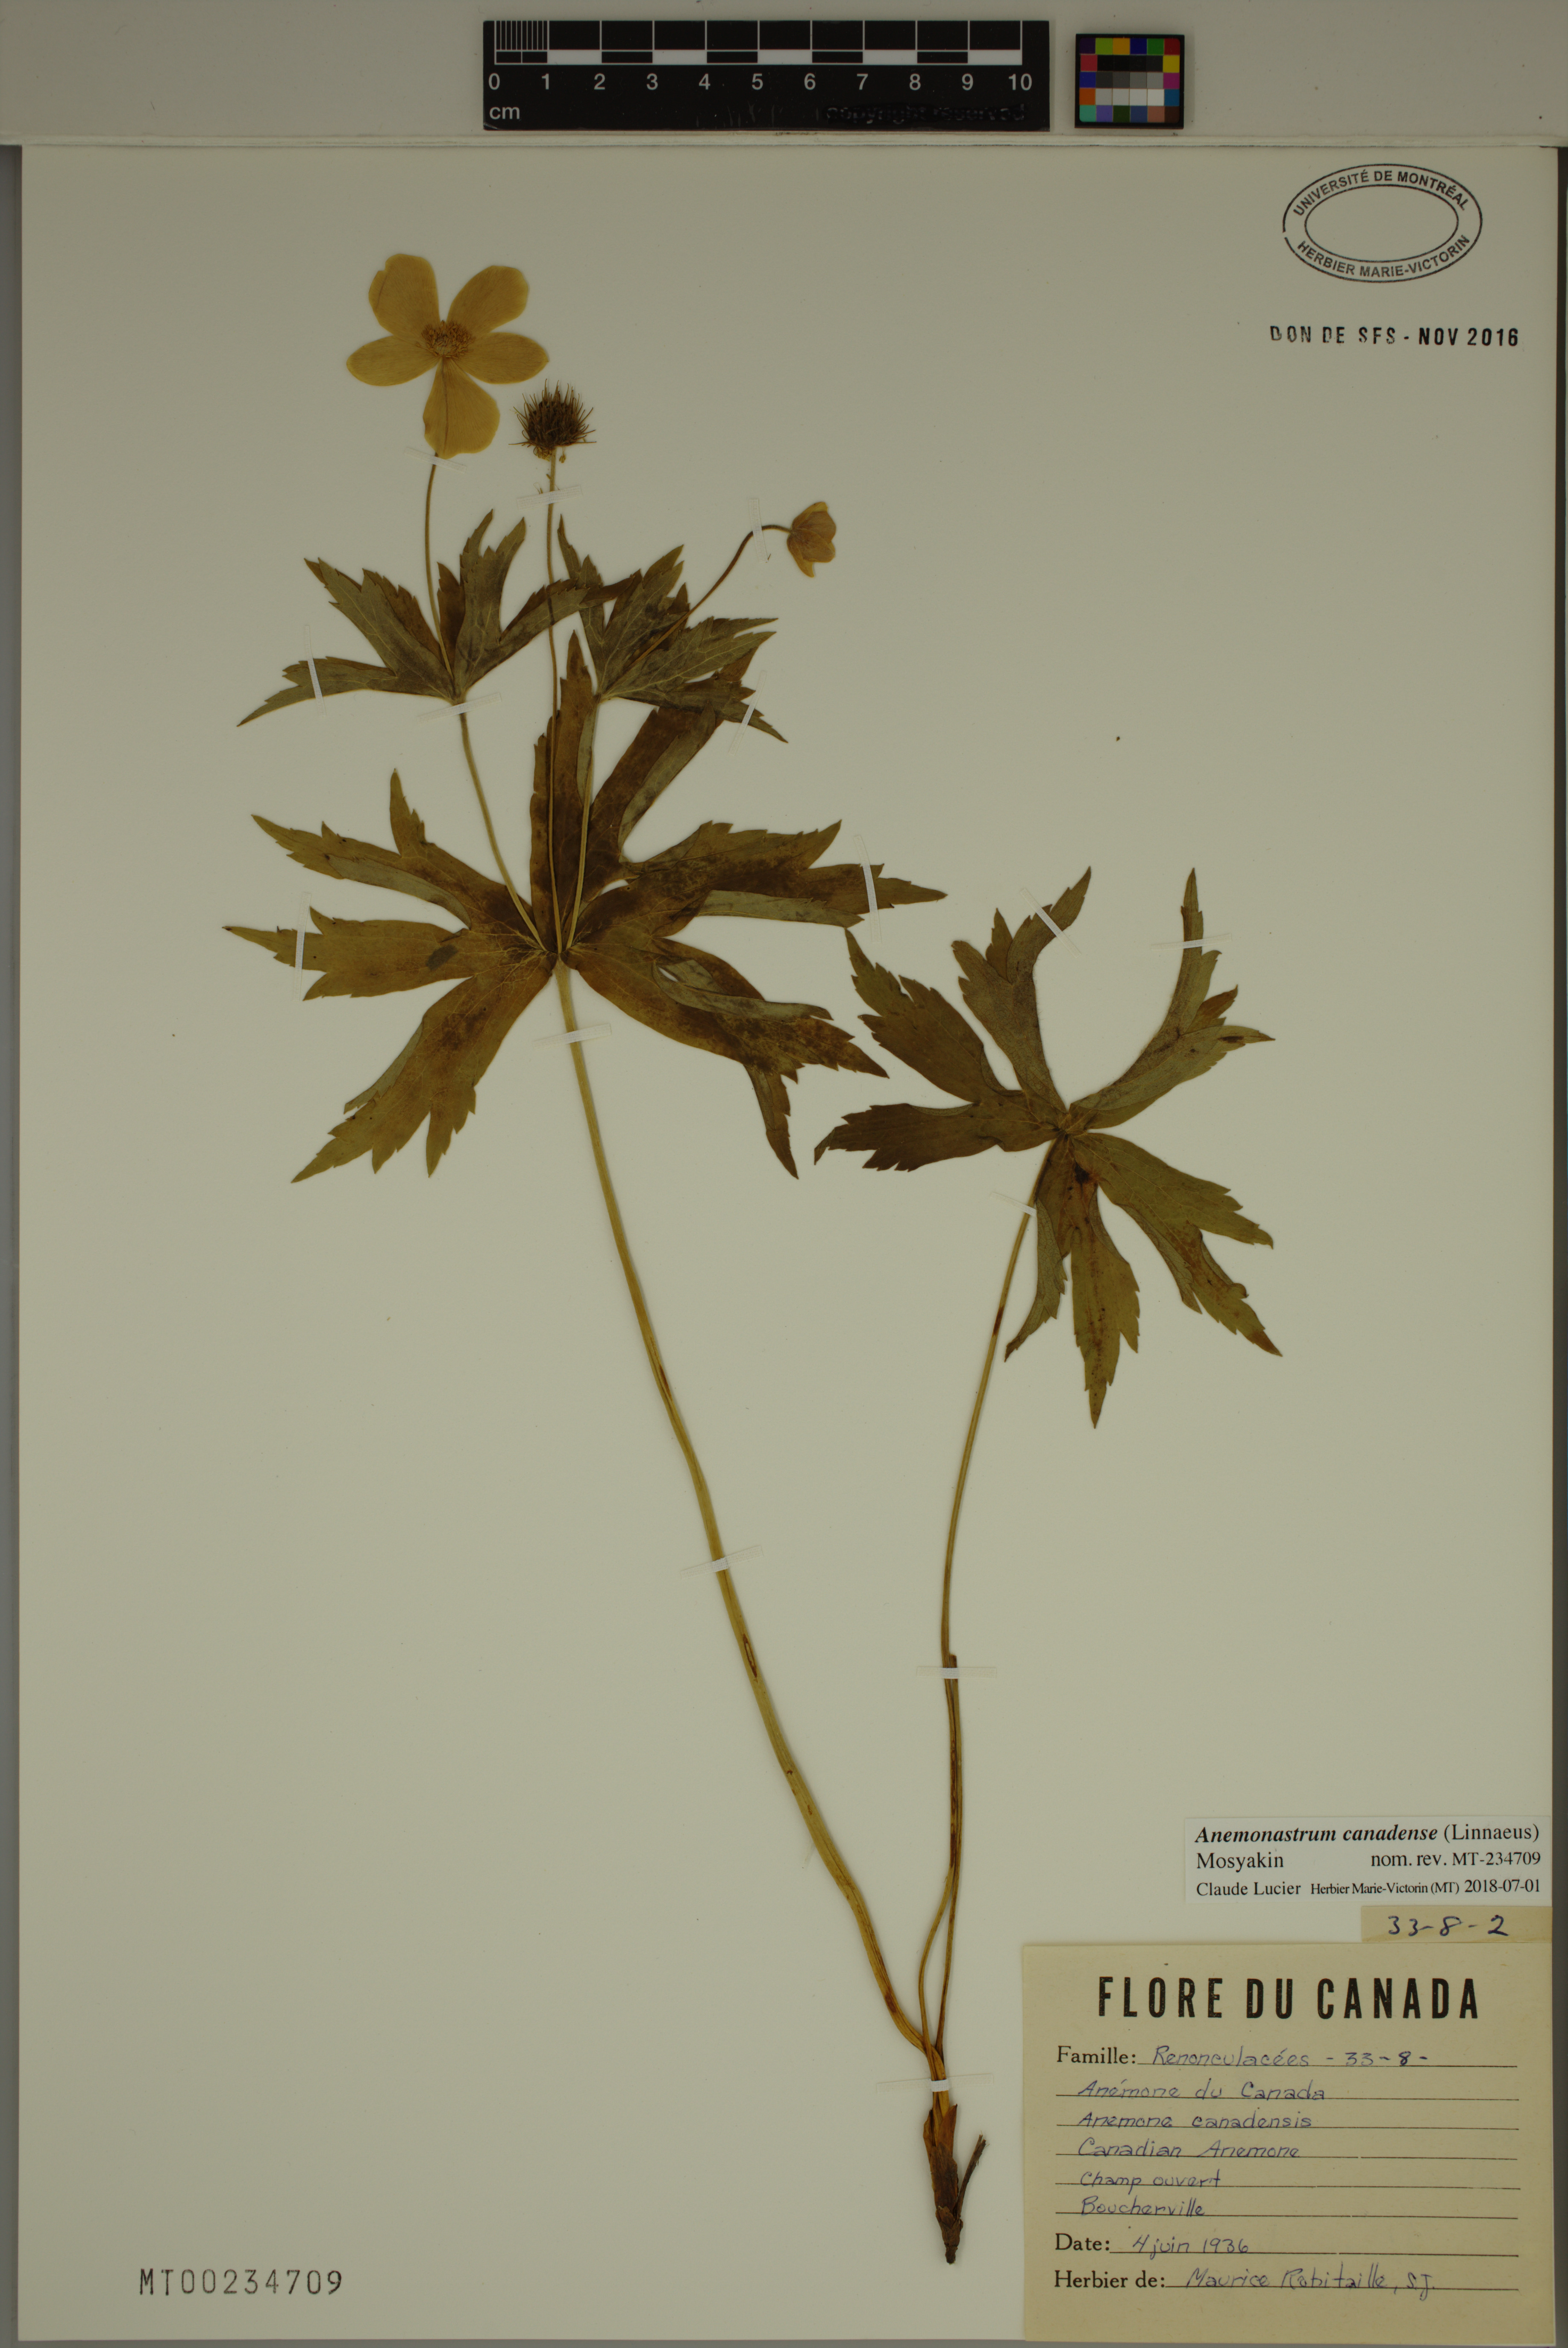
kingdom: Plantae
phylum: Tracheophyta
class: Magnoliopsida
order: Ranunculales
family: Ranunculaceae
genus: Anemonastrum
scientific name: Anemonastrum canadense
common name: Canada anemone
